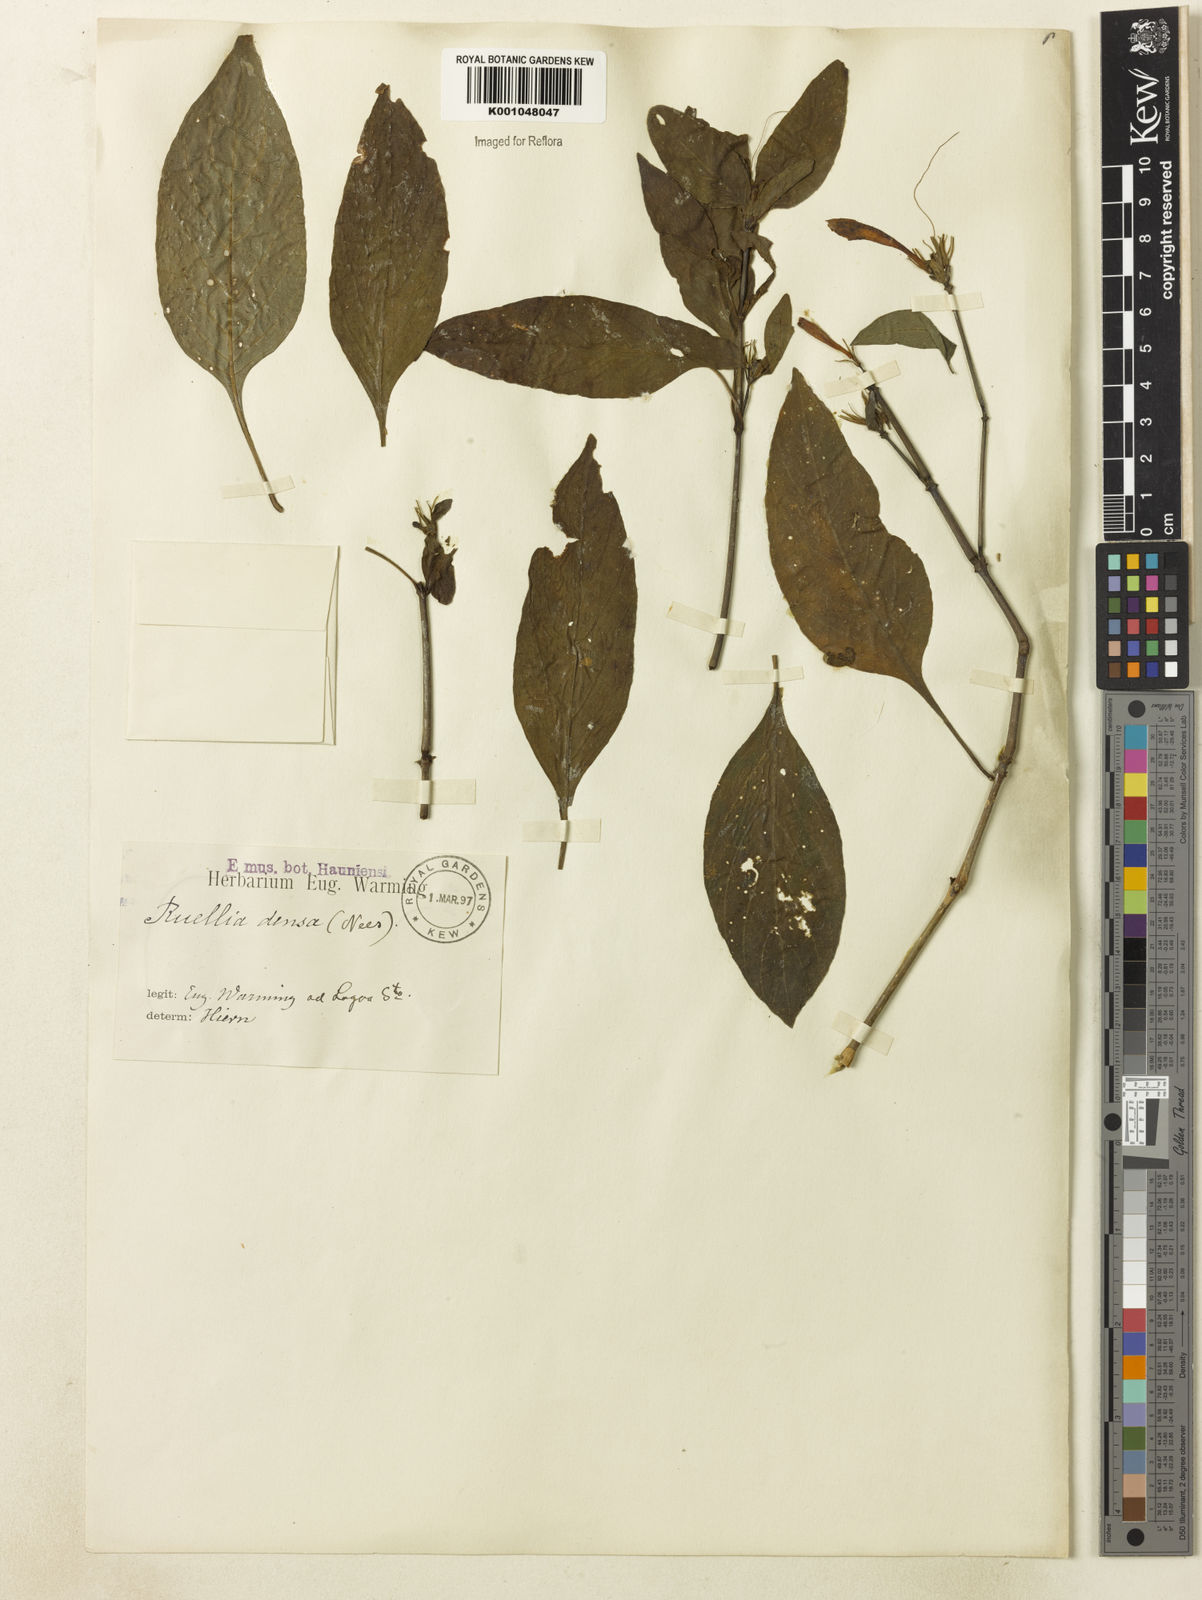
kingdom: Plantae
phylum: Tracheophyta
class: Magnoliopsida
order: Lamiales
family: Acanthaceae
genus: Ruellia
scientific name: Ruellia densa
